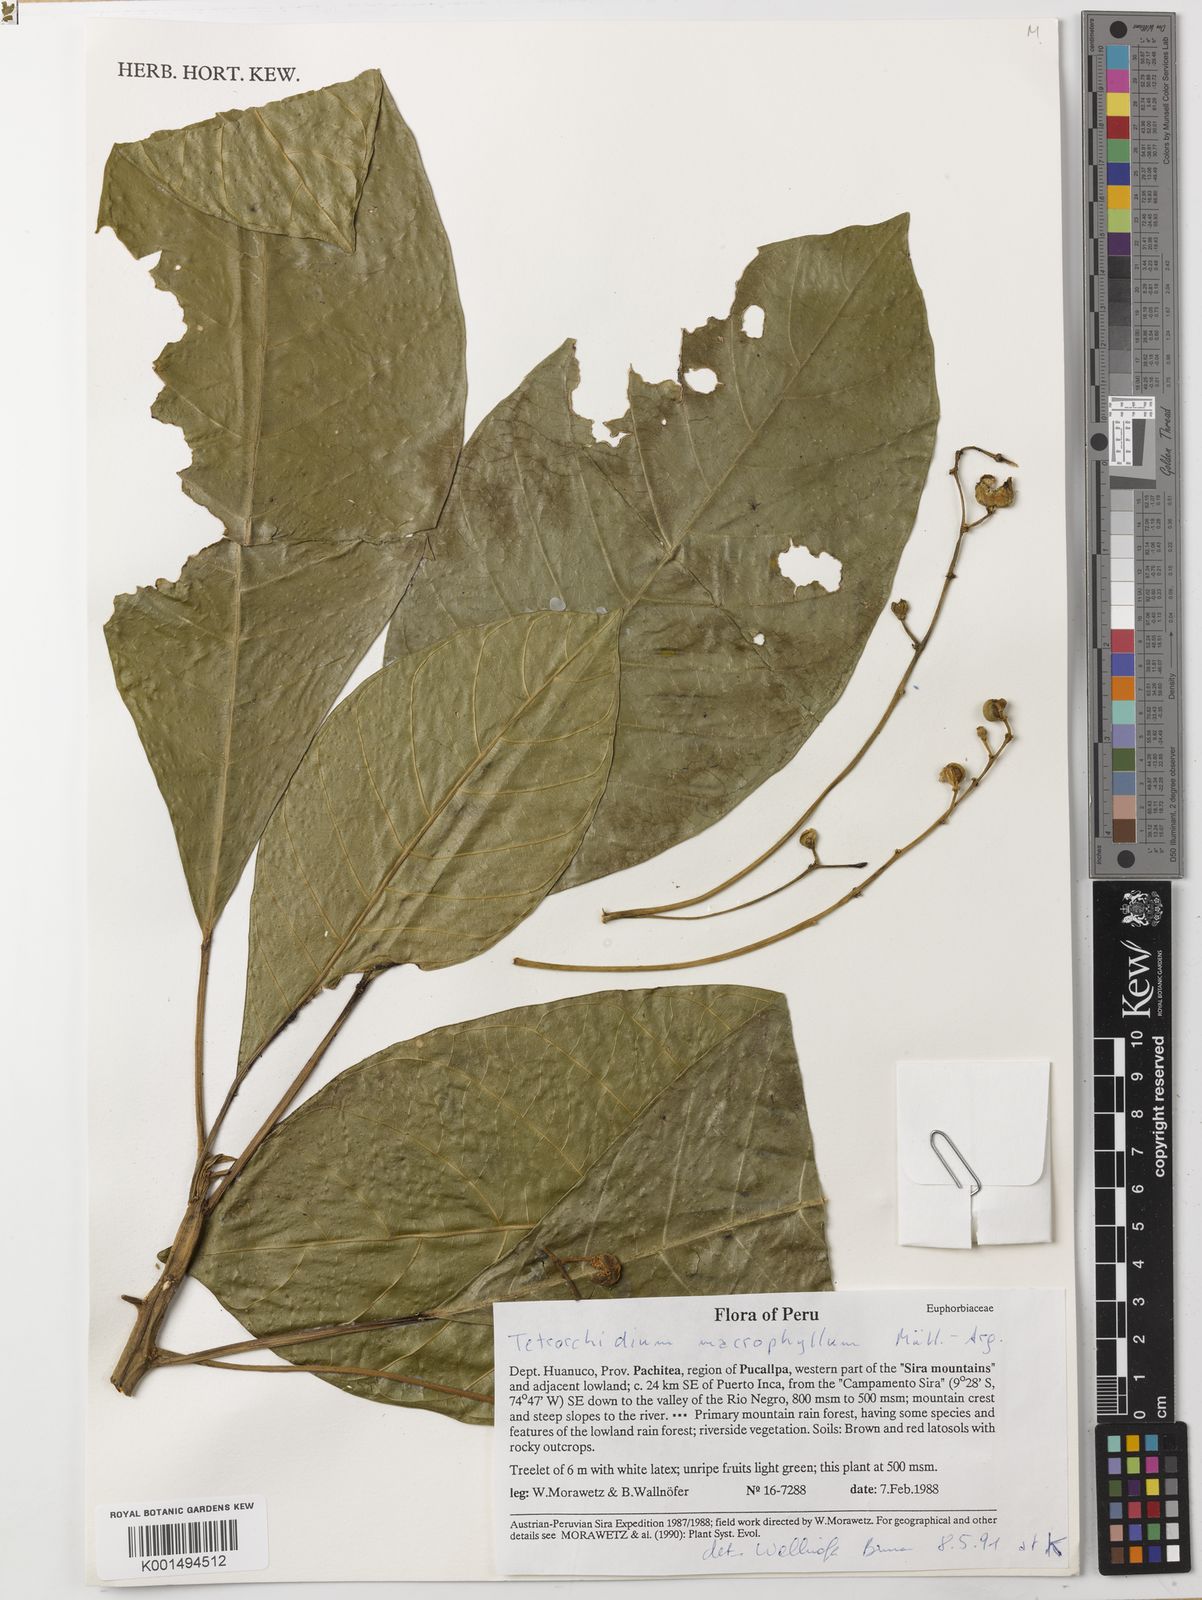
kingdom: Plantae
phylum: Tracheophyta
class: Magnoliopsida
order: Malpighiales
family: Euphorbiaceae
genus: Tetrorchidium
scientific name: Tetrorchidium macrophyllum
